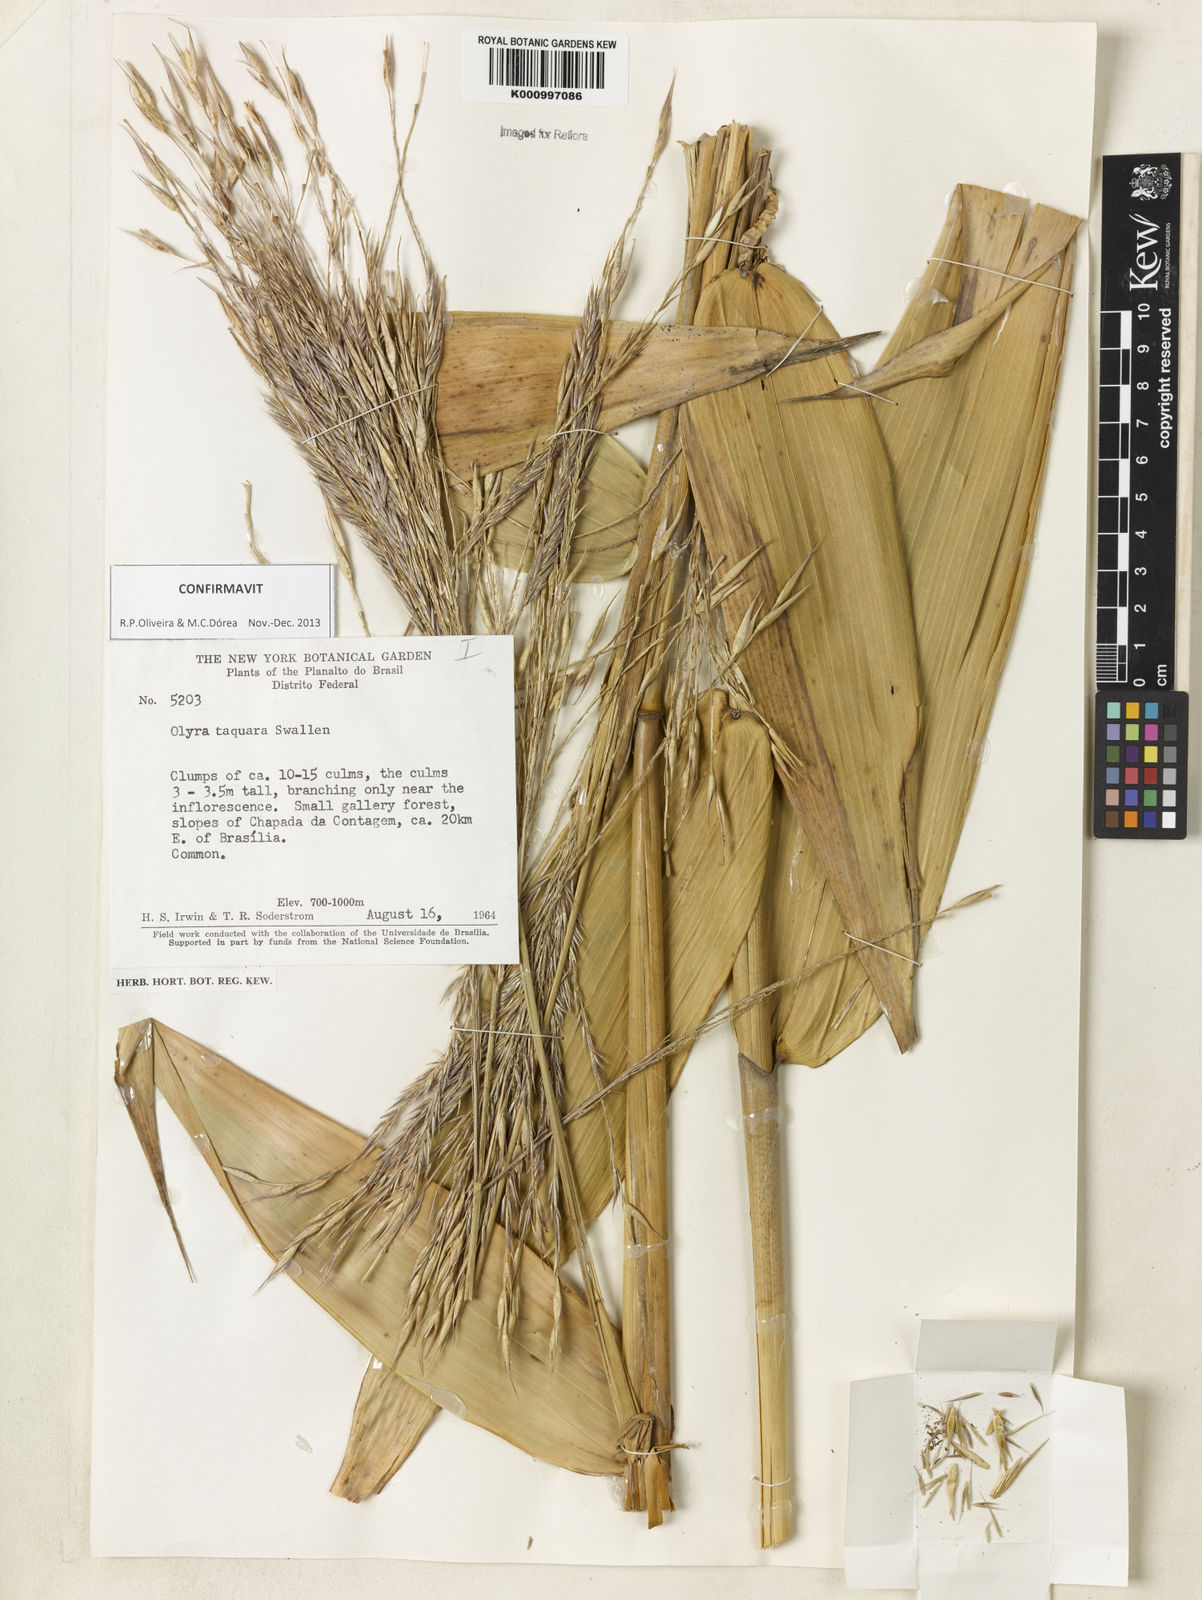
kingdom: Plantae
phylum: Tracheophyta
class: Liliopsida
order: Poales
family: Poaceae
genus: Olyra
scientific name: Olyra taquara
